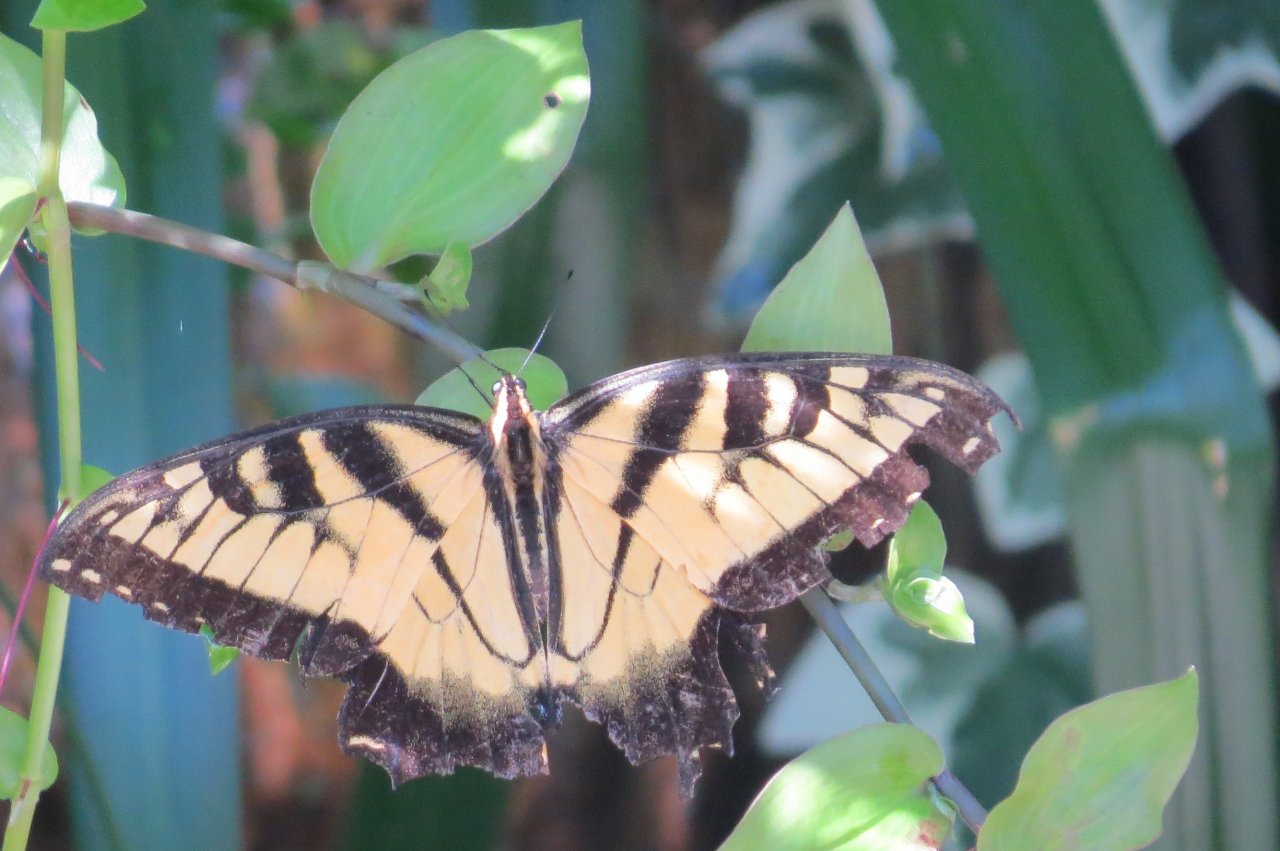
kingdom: Animalia
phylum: Arthropoda
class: Insecta
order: Lepidoptera
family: Papilionidae
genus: Pterourus
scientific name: Pterourus glaucus
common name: Eastern Tiger Swallowtail
